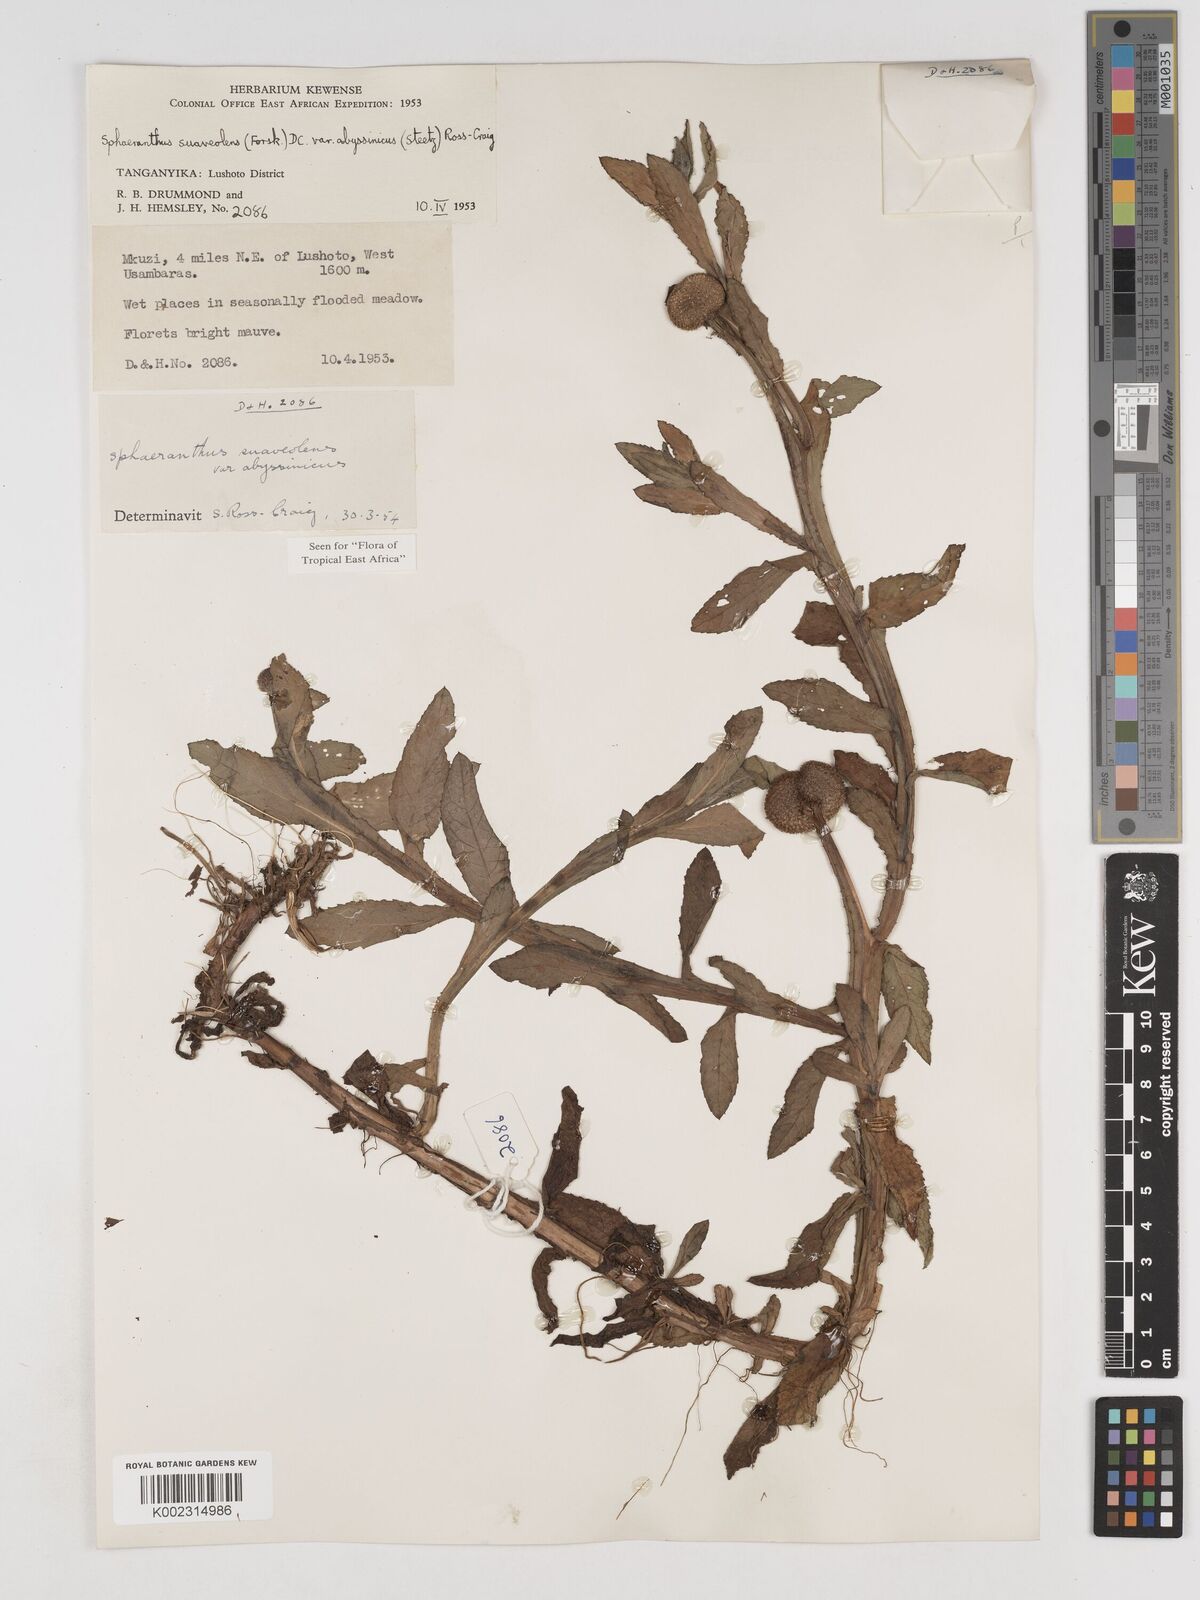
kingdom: Plantae
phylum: Tracheophyta
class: Magnoliopsida
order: Asterales
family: Asteraceae
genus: Sphaeranthus
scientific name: Sphaeranthus suaveolens
